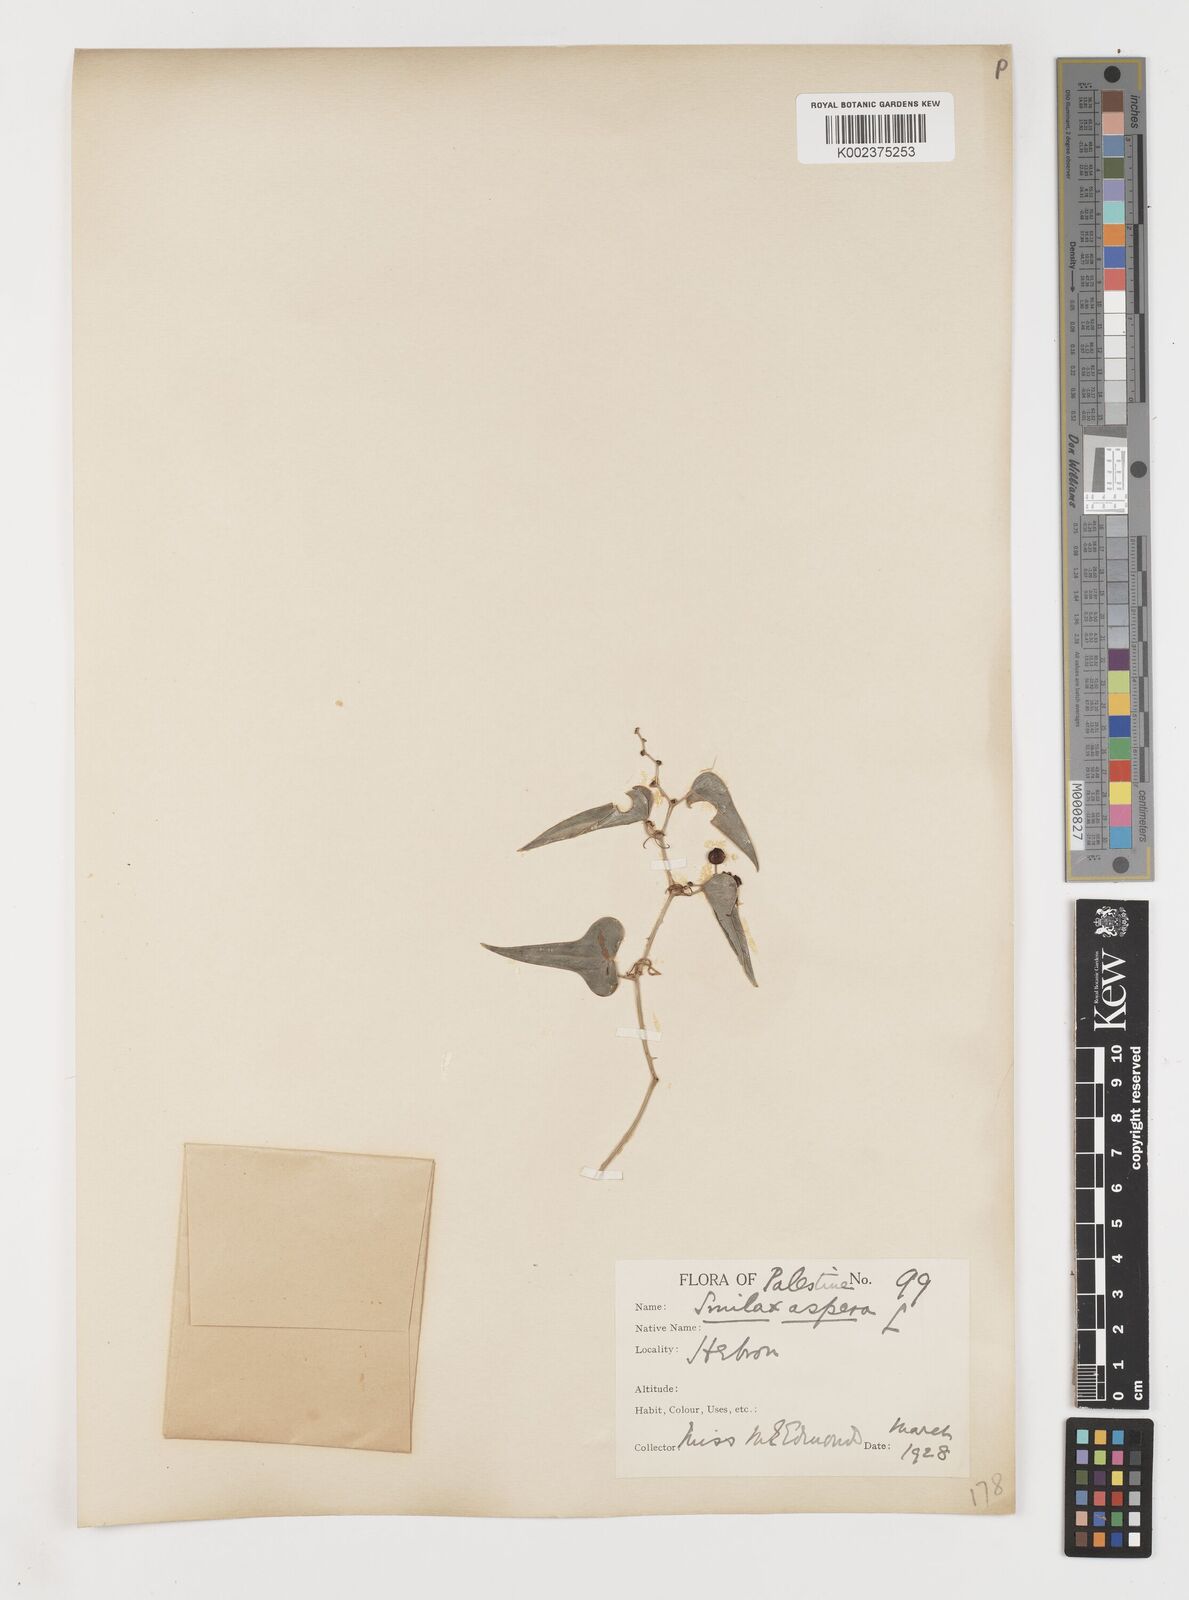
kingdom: Plantae
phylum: Tracheophyta
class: Liliopsida
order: Liliales
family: Smilacaceae
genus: Smilax
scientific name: Smilax aspera
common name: Common smilax
